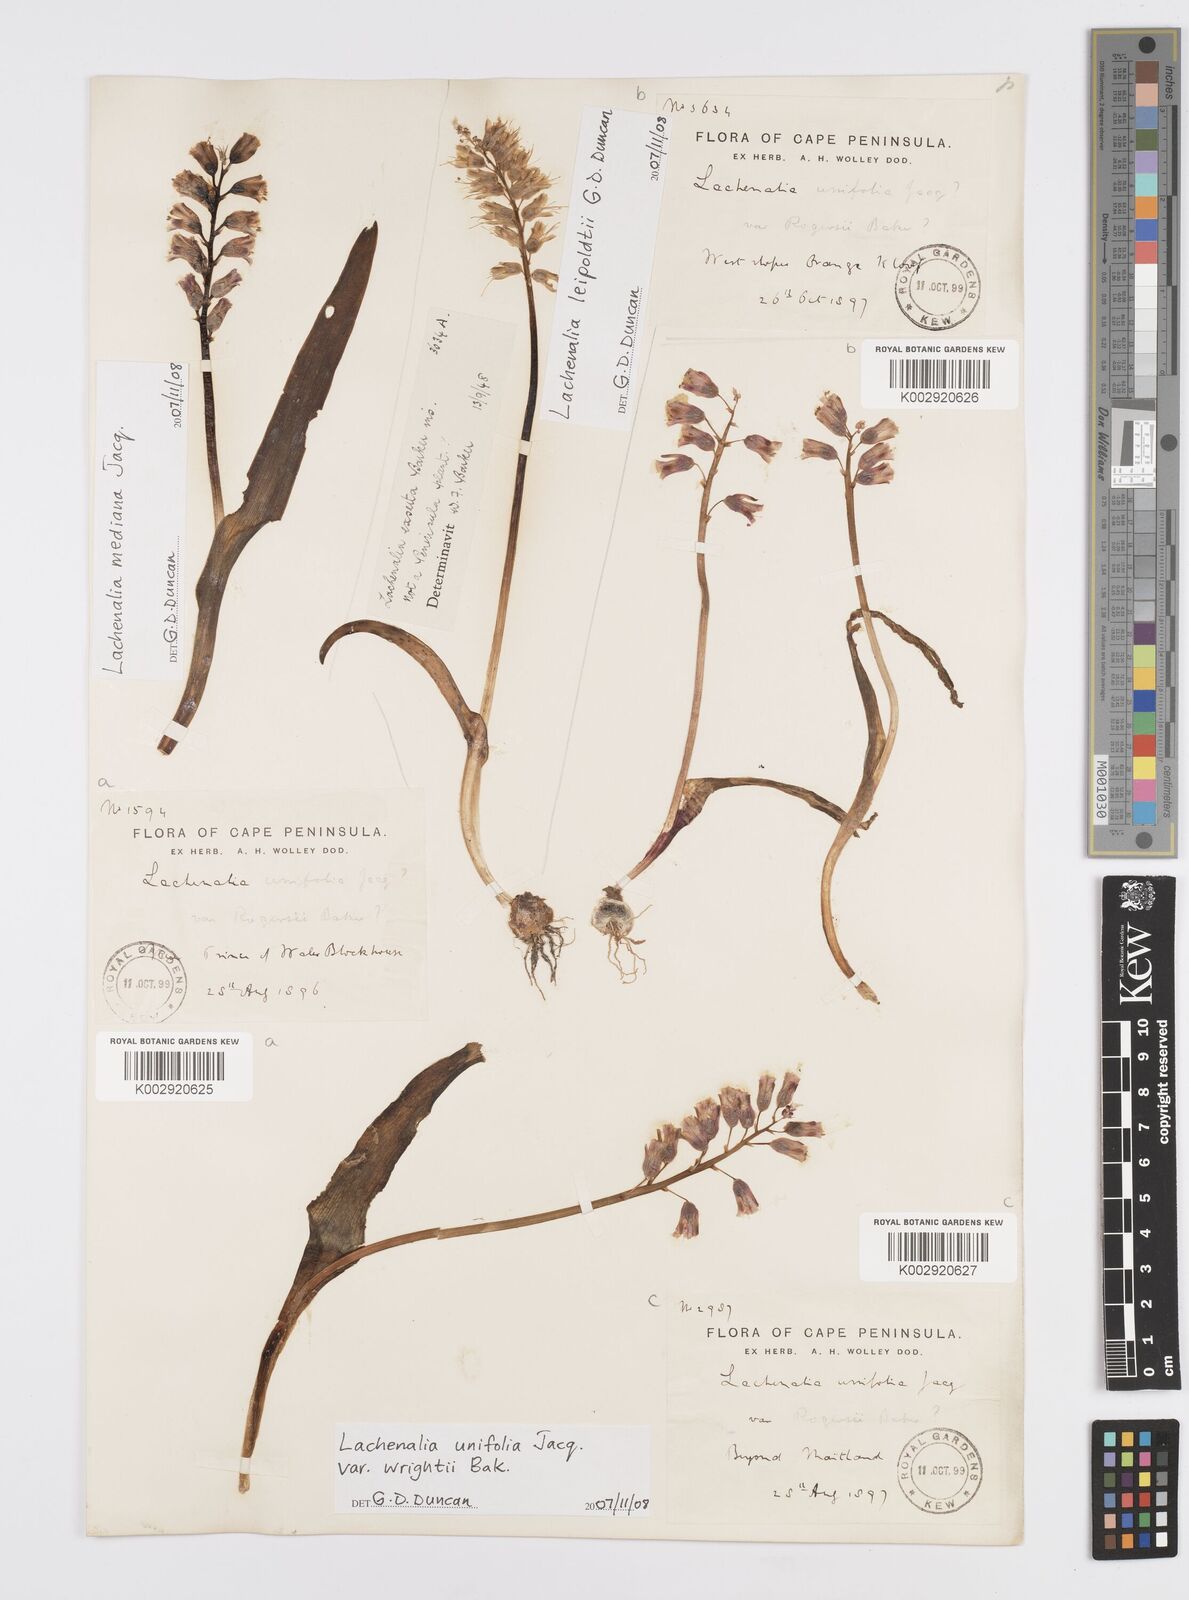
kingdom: Plantae
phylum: Tracheophyta
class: Liliopsida
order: Asparagales
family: Asparagaceae
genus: Lachenalia
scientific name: Lachenalia unifolia
